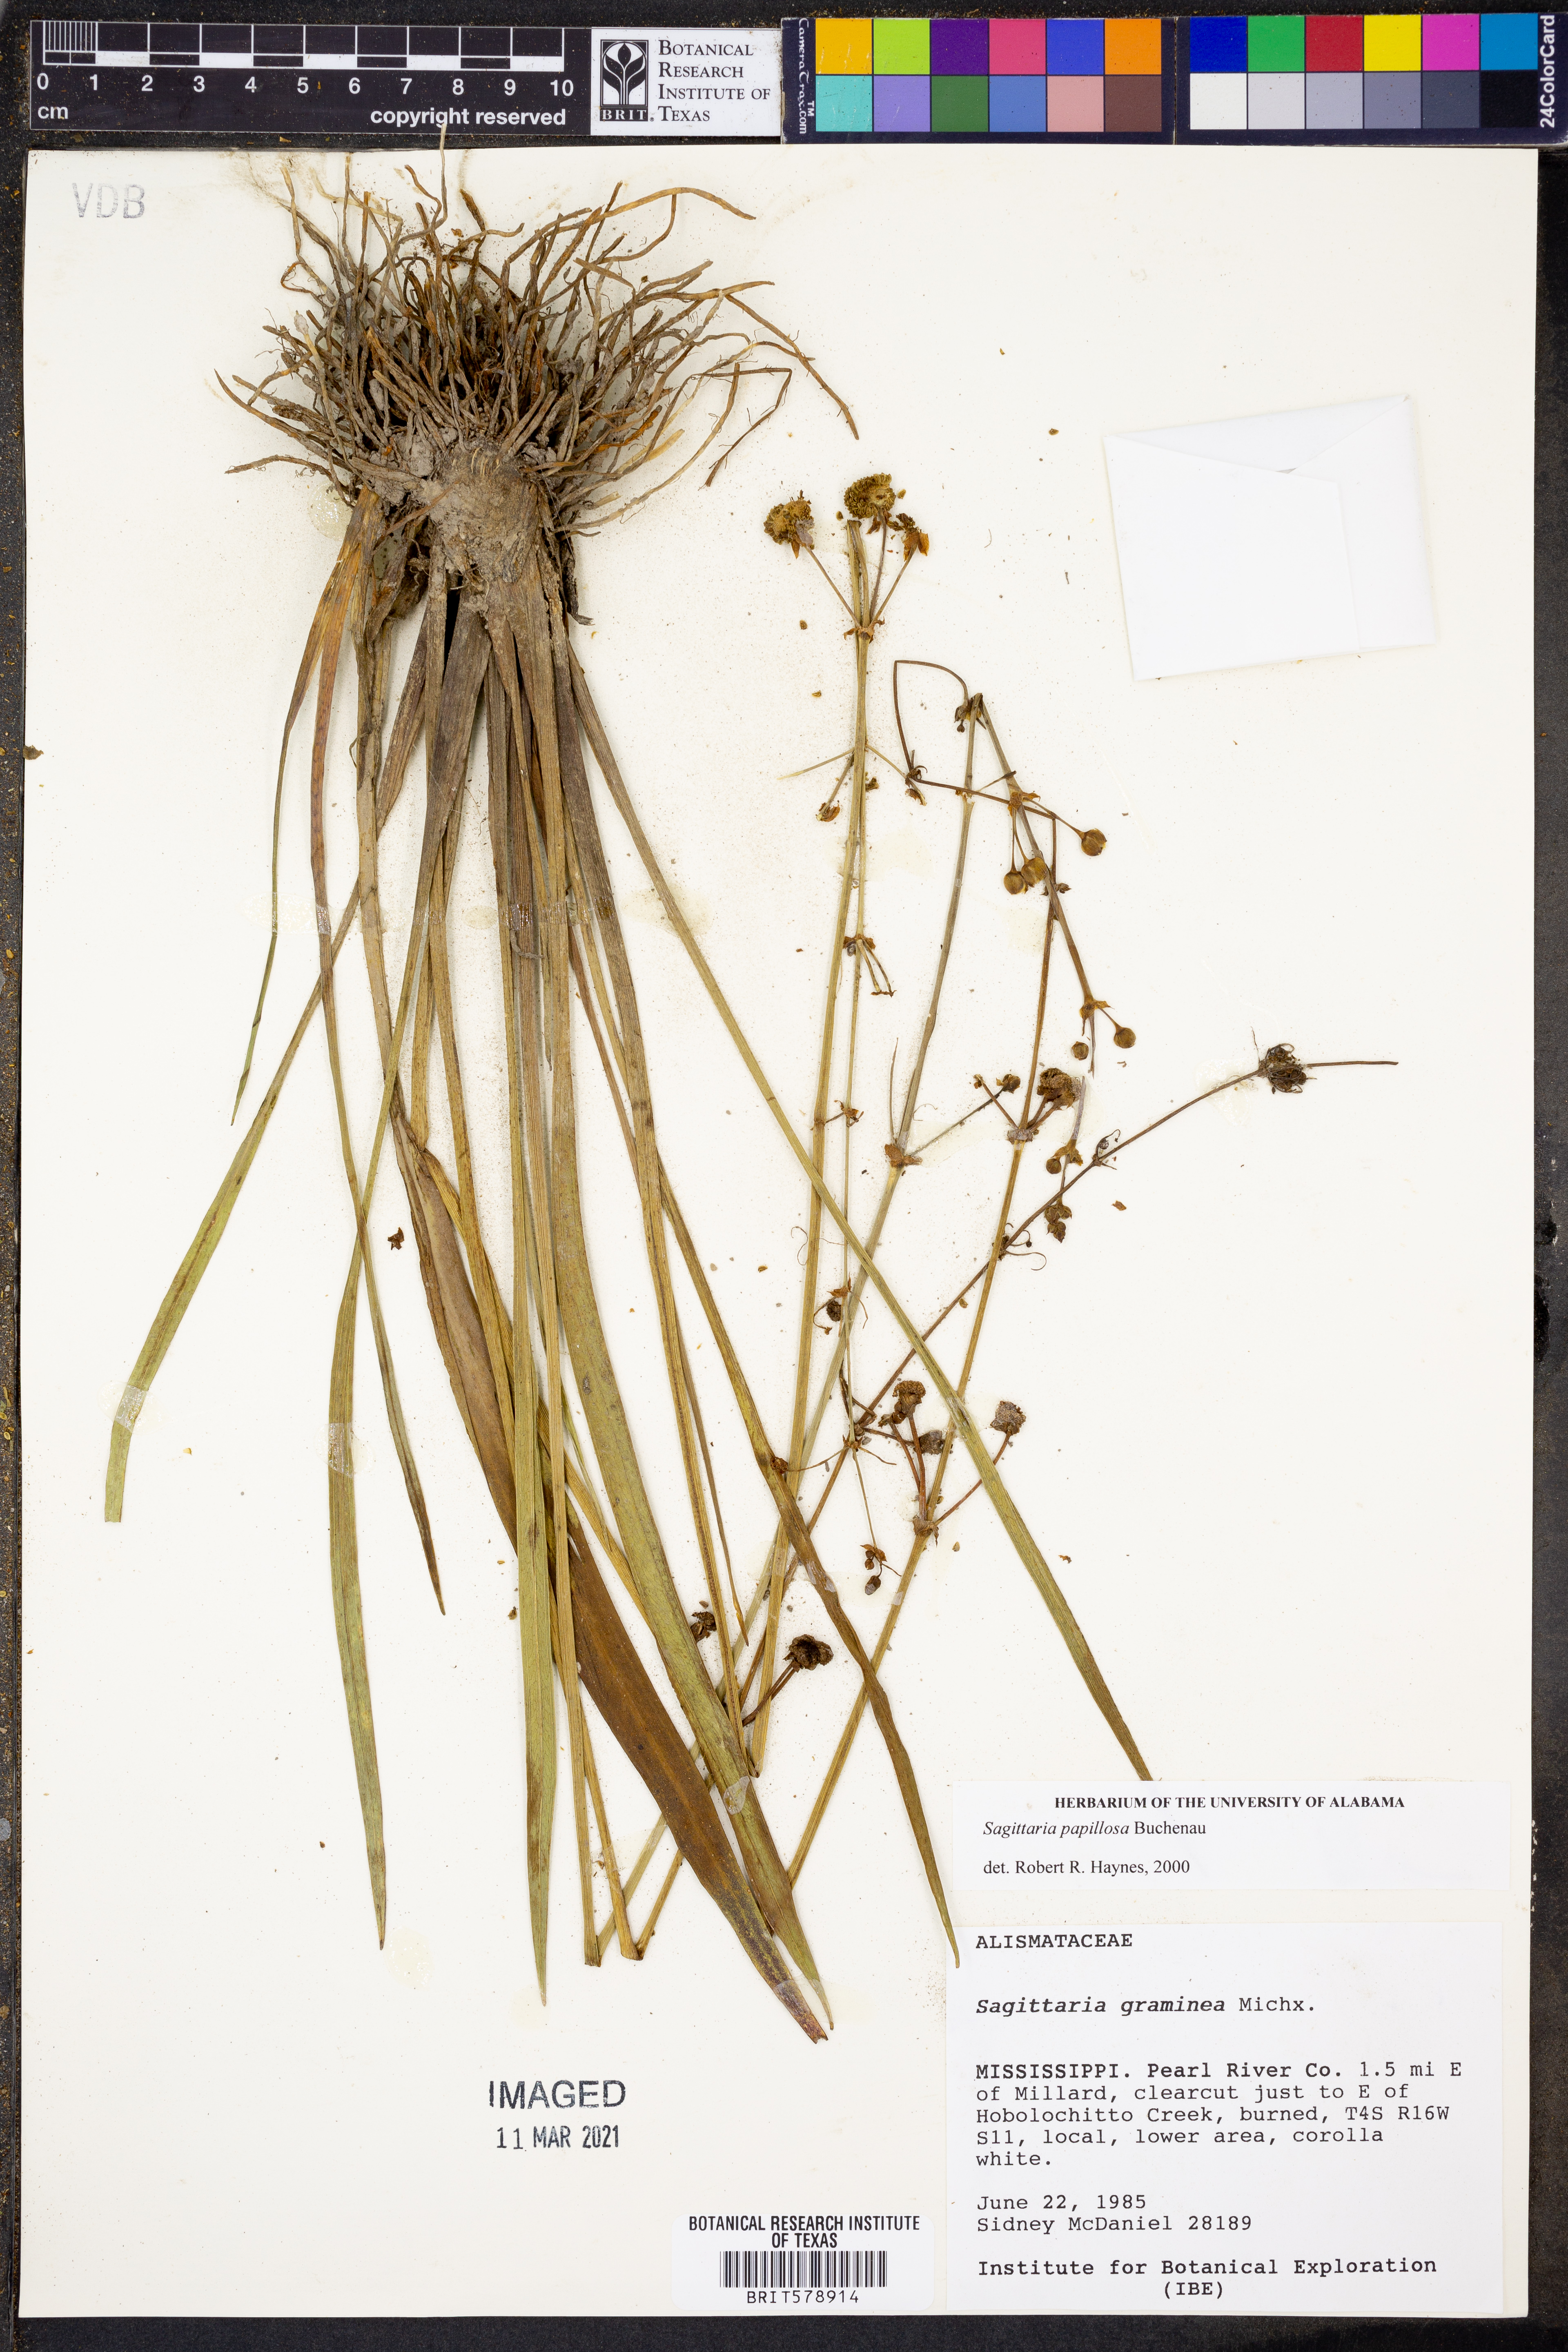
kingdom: Plantae
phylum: Tracheophyta
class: Liliopsida
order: Alismatales
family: Alismataceae
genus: Sagittaria
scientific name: Sagittaria papillosa
